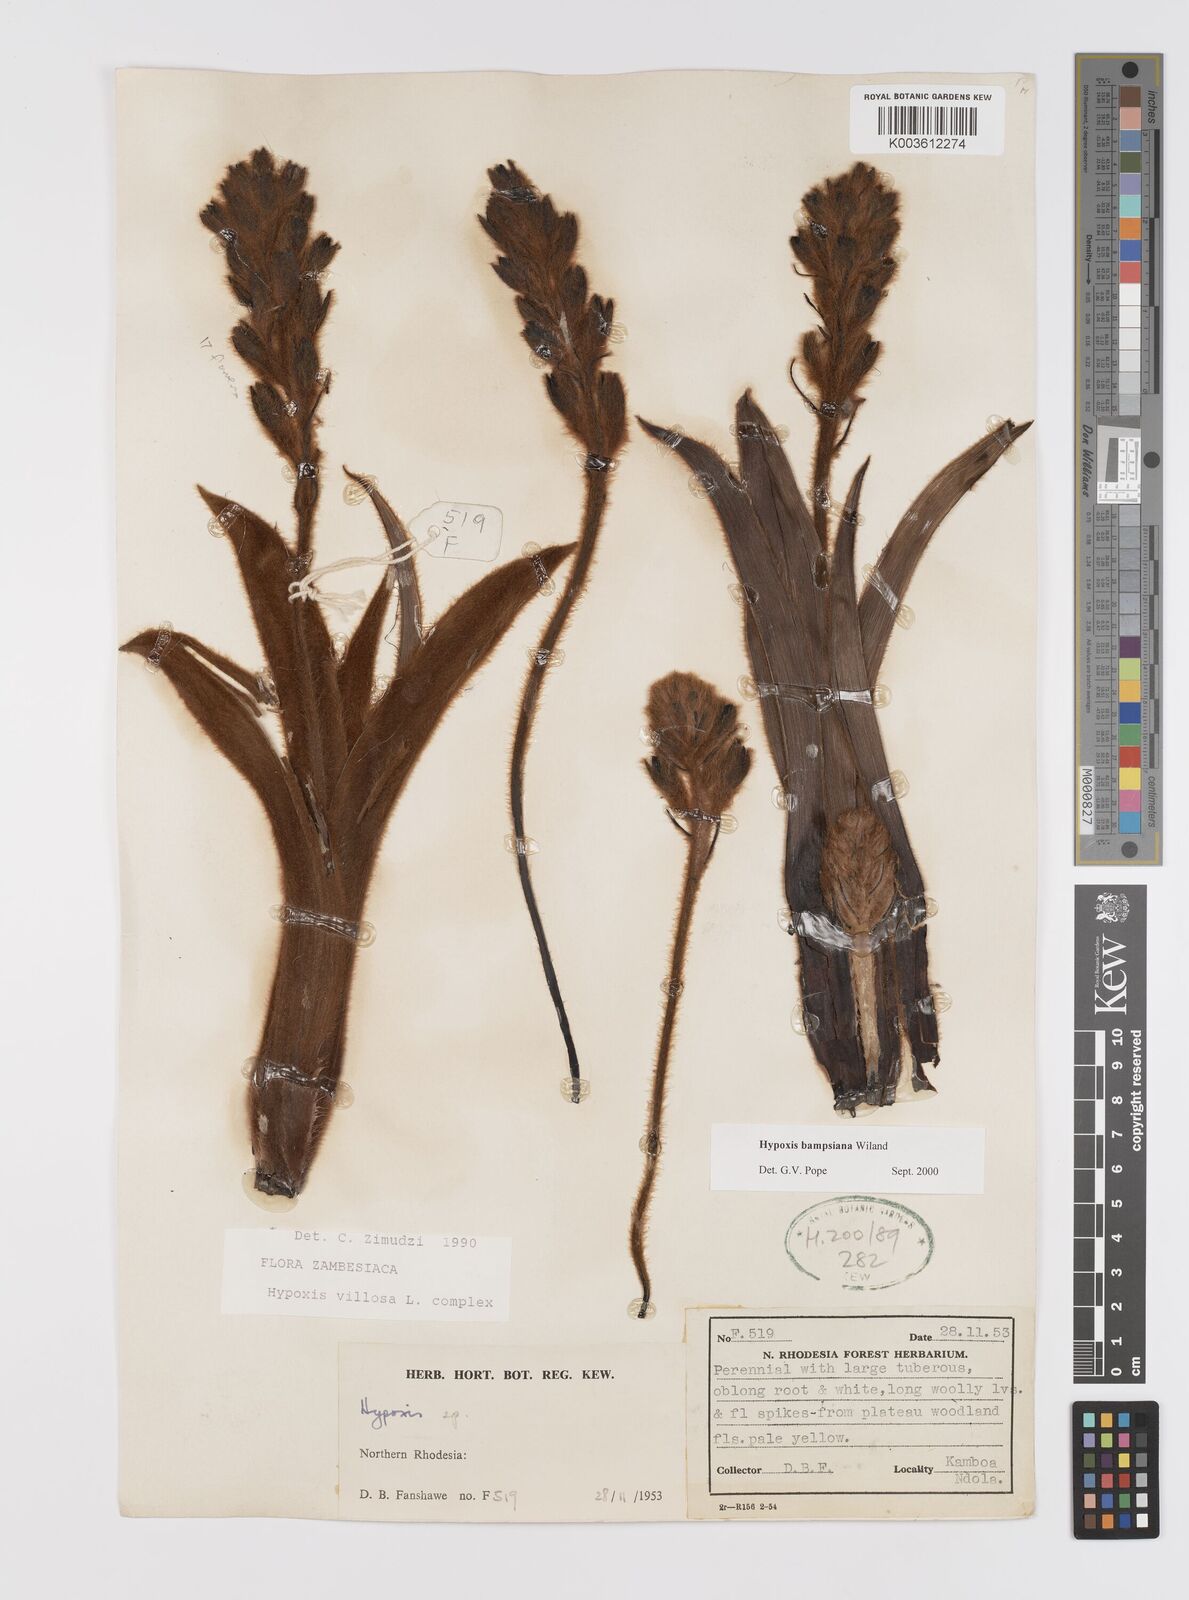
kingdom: Plantae
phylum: Tracheophyta
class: Liliopsida
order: Asparagales
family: Hypoxidaceae
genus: Hypoxis
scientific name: Hypoxis bampsiana
